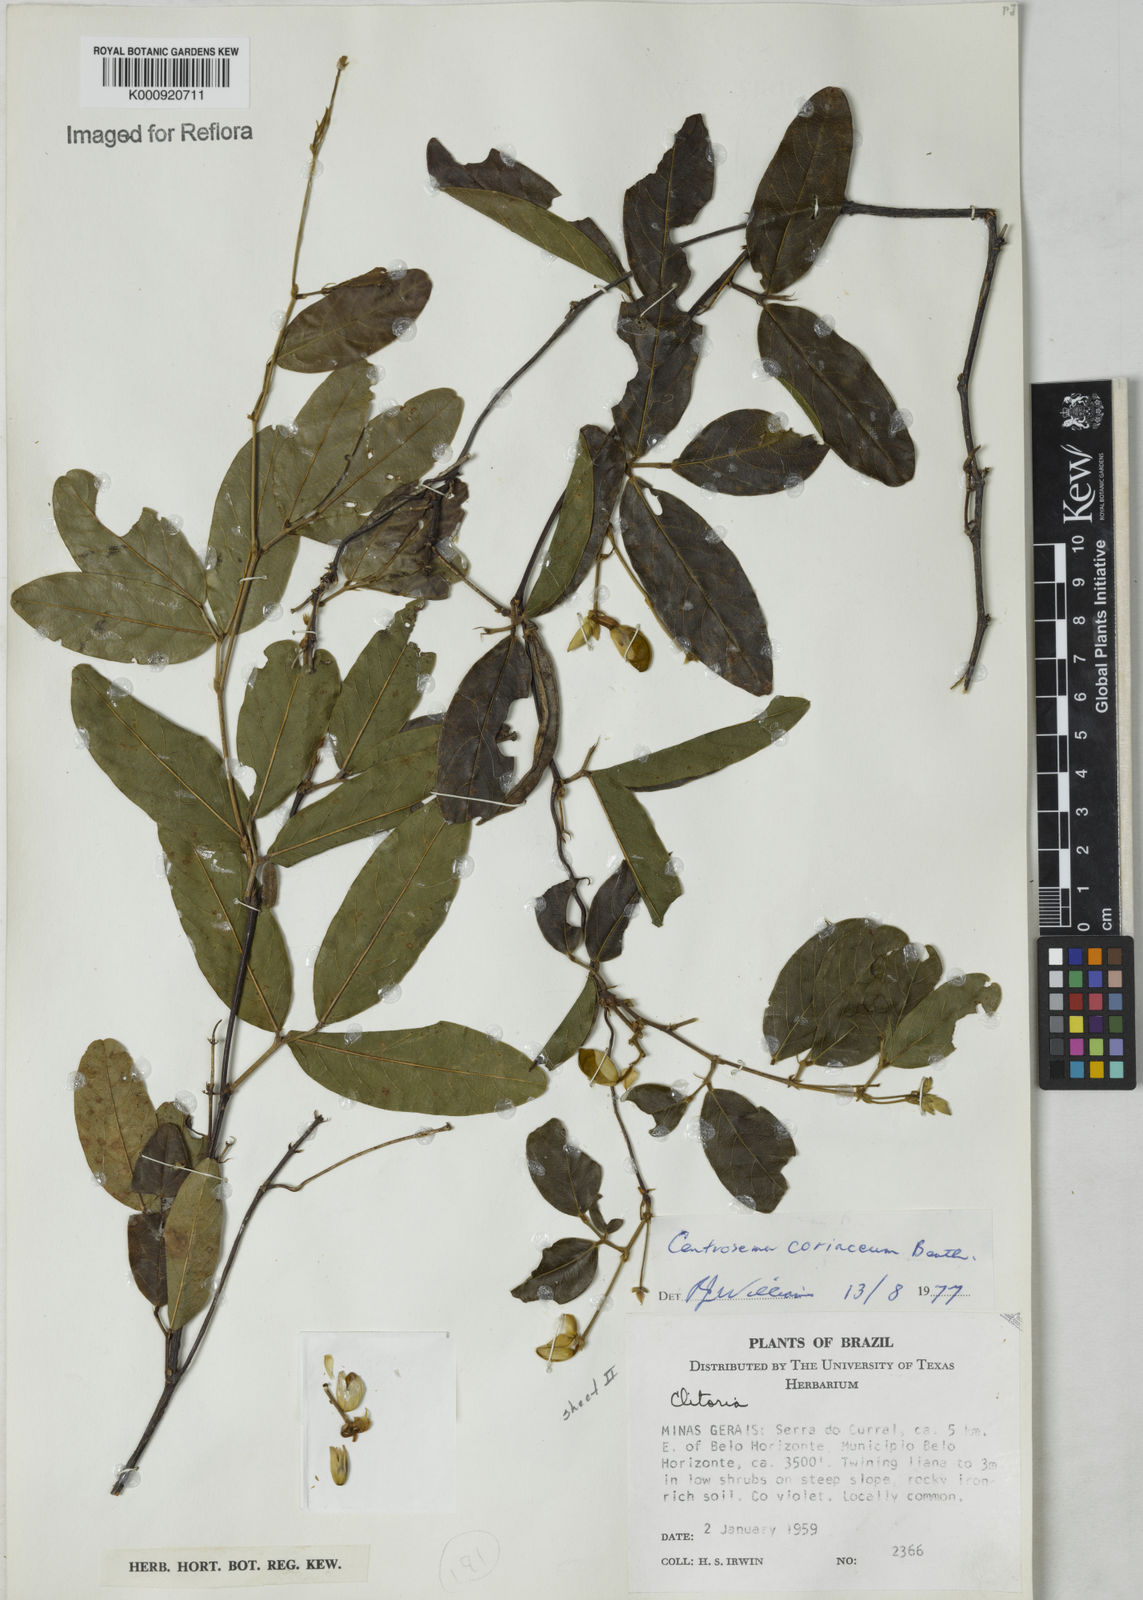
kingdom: Plantae
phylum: Tracheophyta
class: Magnoliopsida
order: Fabales
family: Fabaceae
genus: Centrosema
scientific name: Centrosema coriaceum
